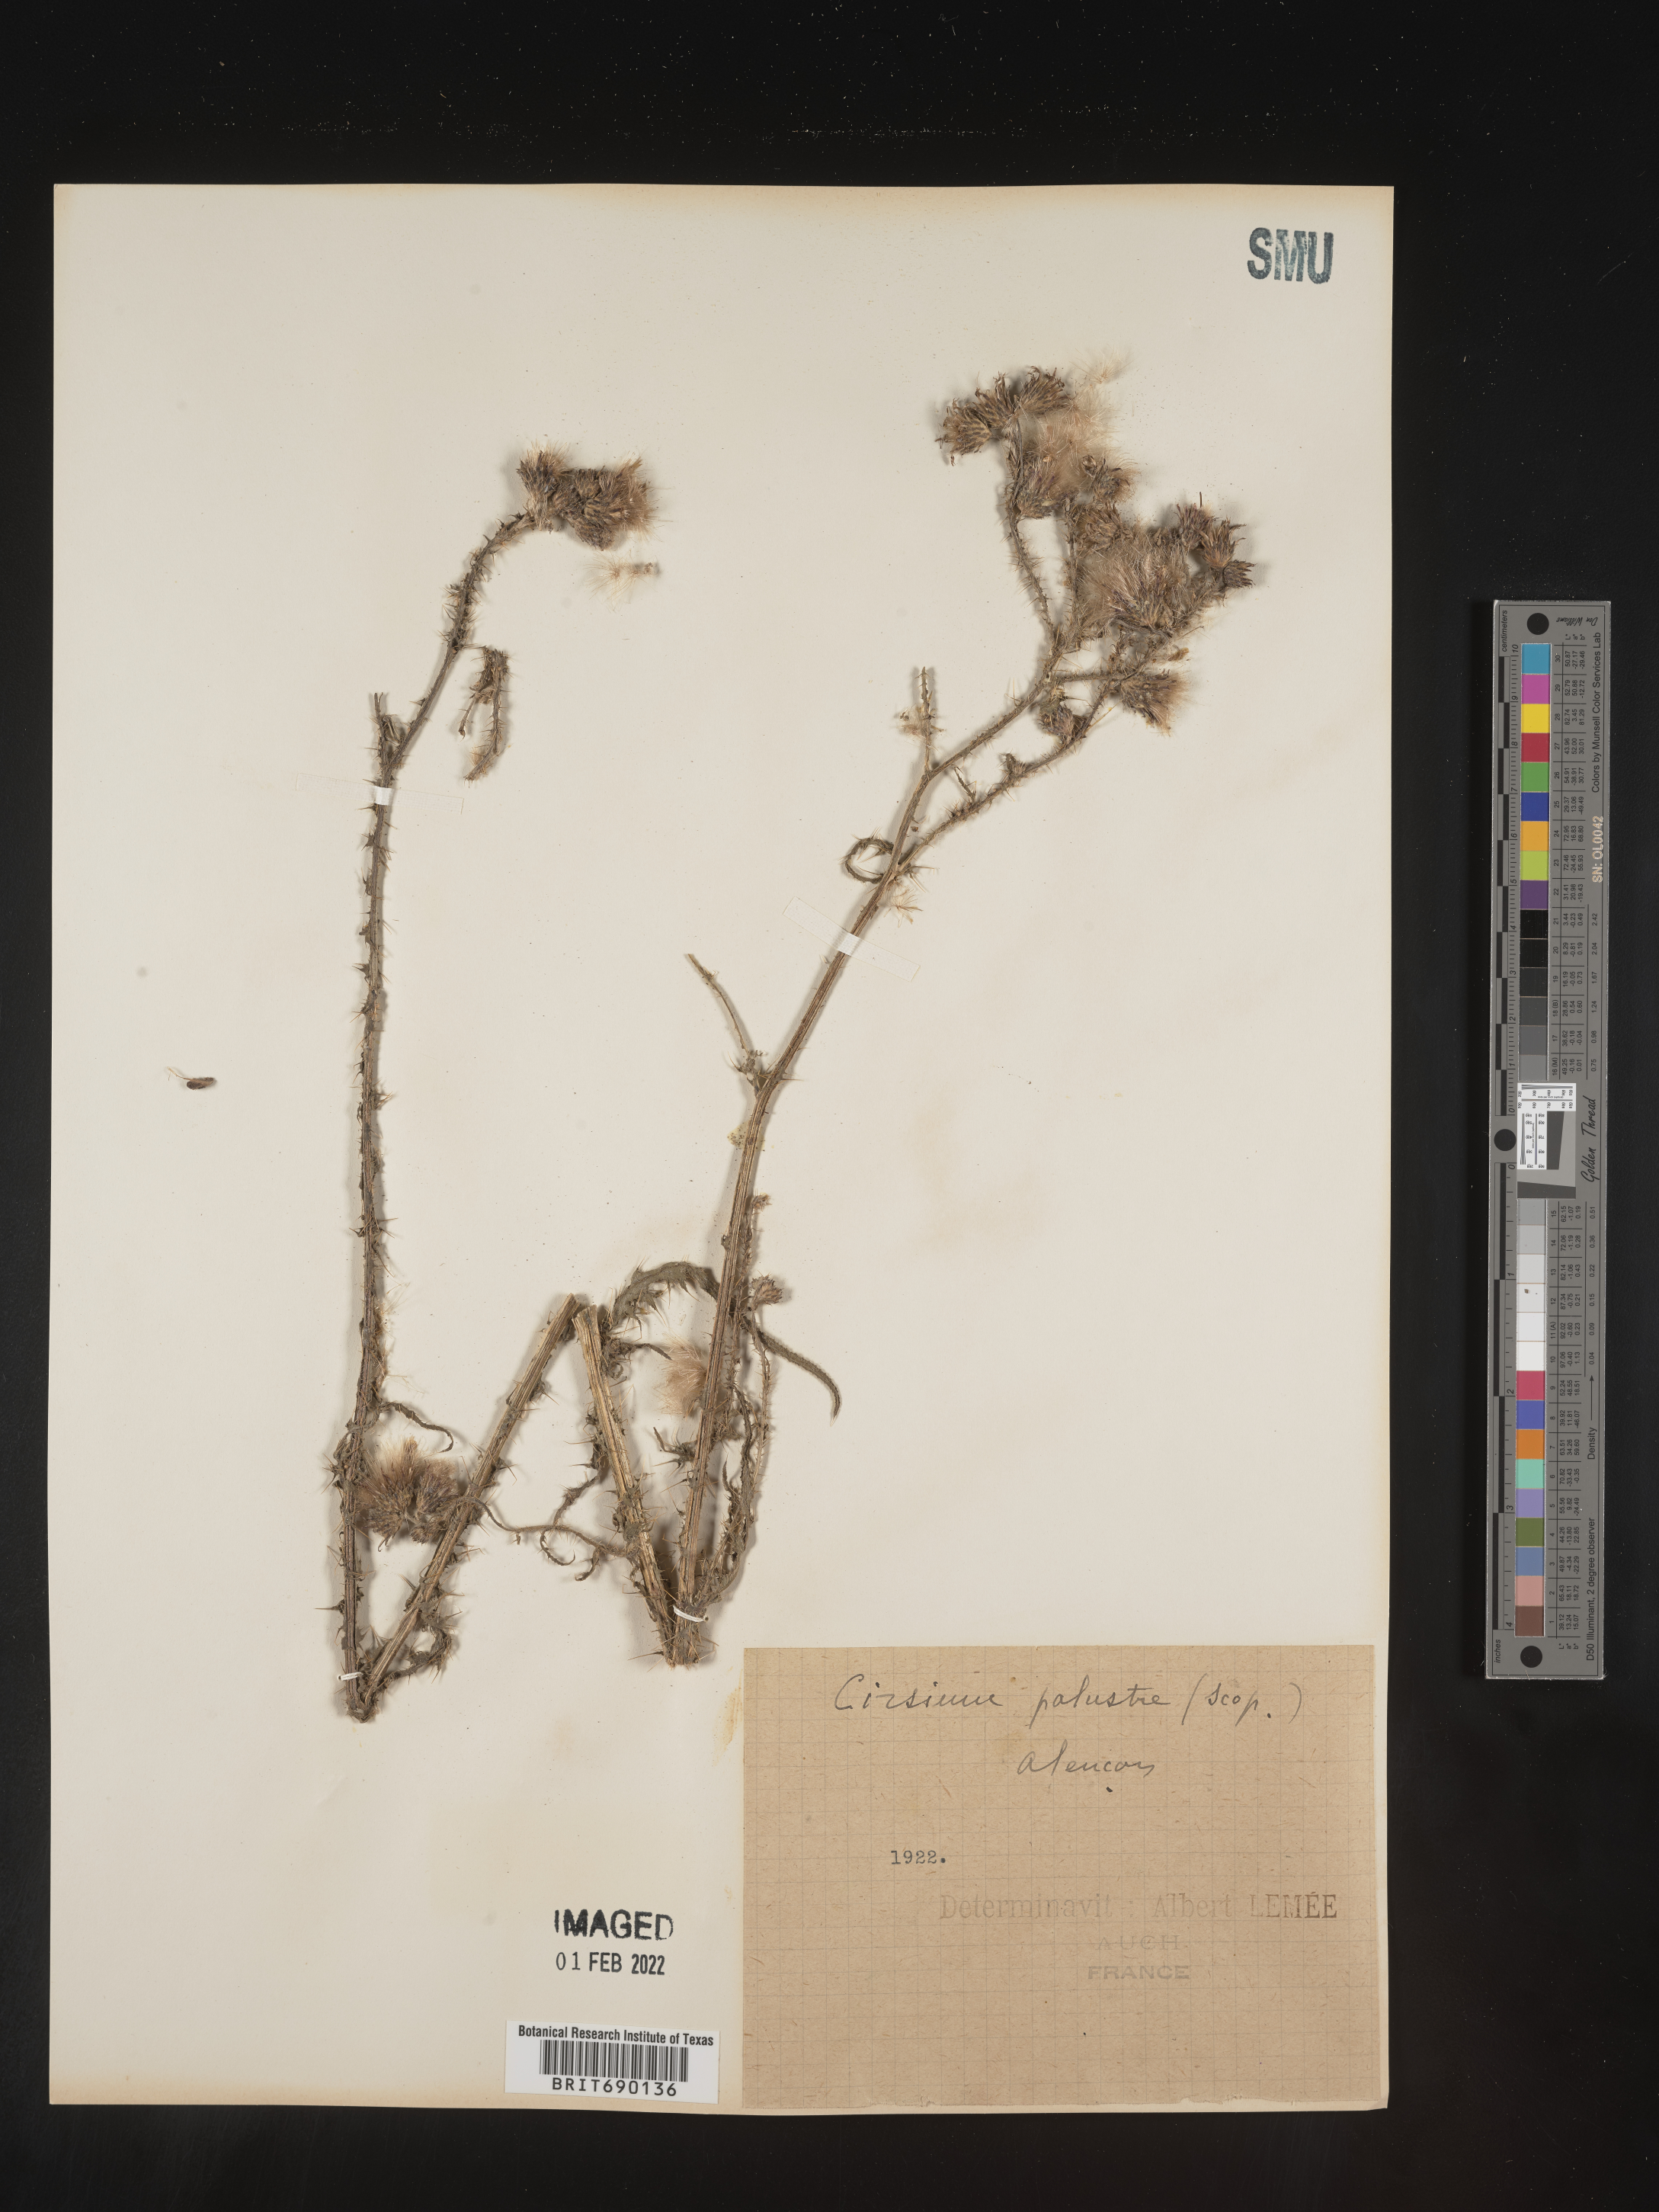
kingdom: Plantae
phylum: Tracheophyta
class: Magnoliopsida
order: Asterales
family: Asteraceae
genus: Cirsium
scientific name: Cirsium
